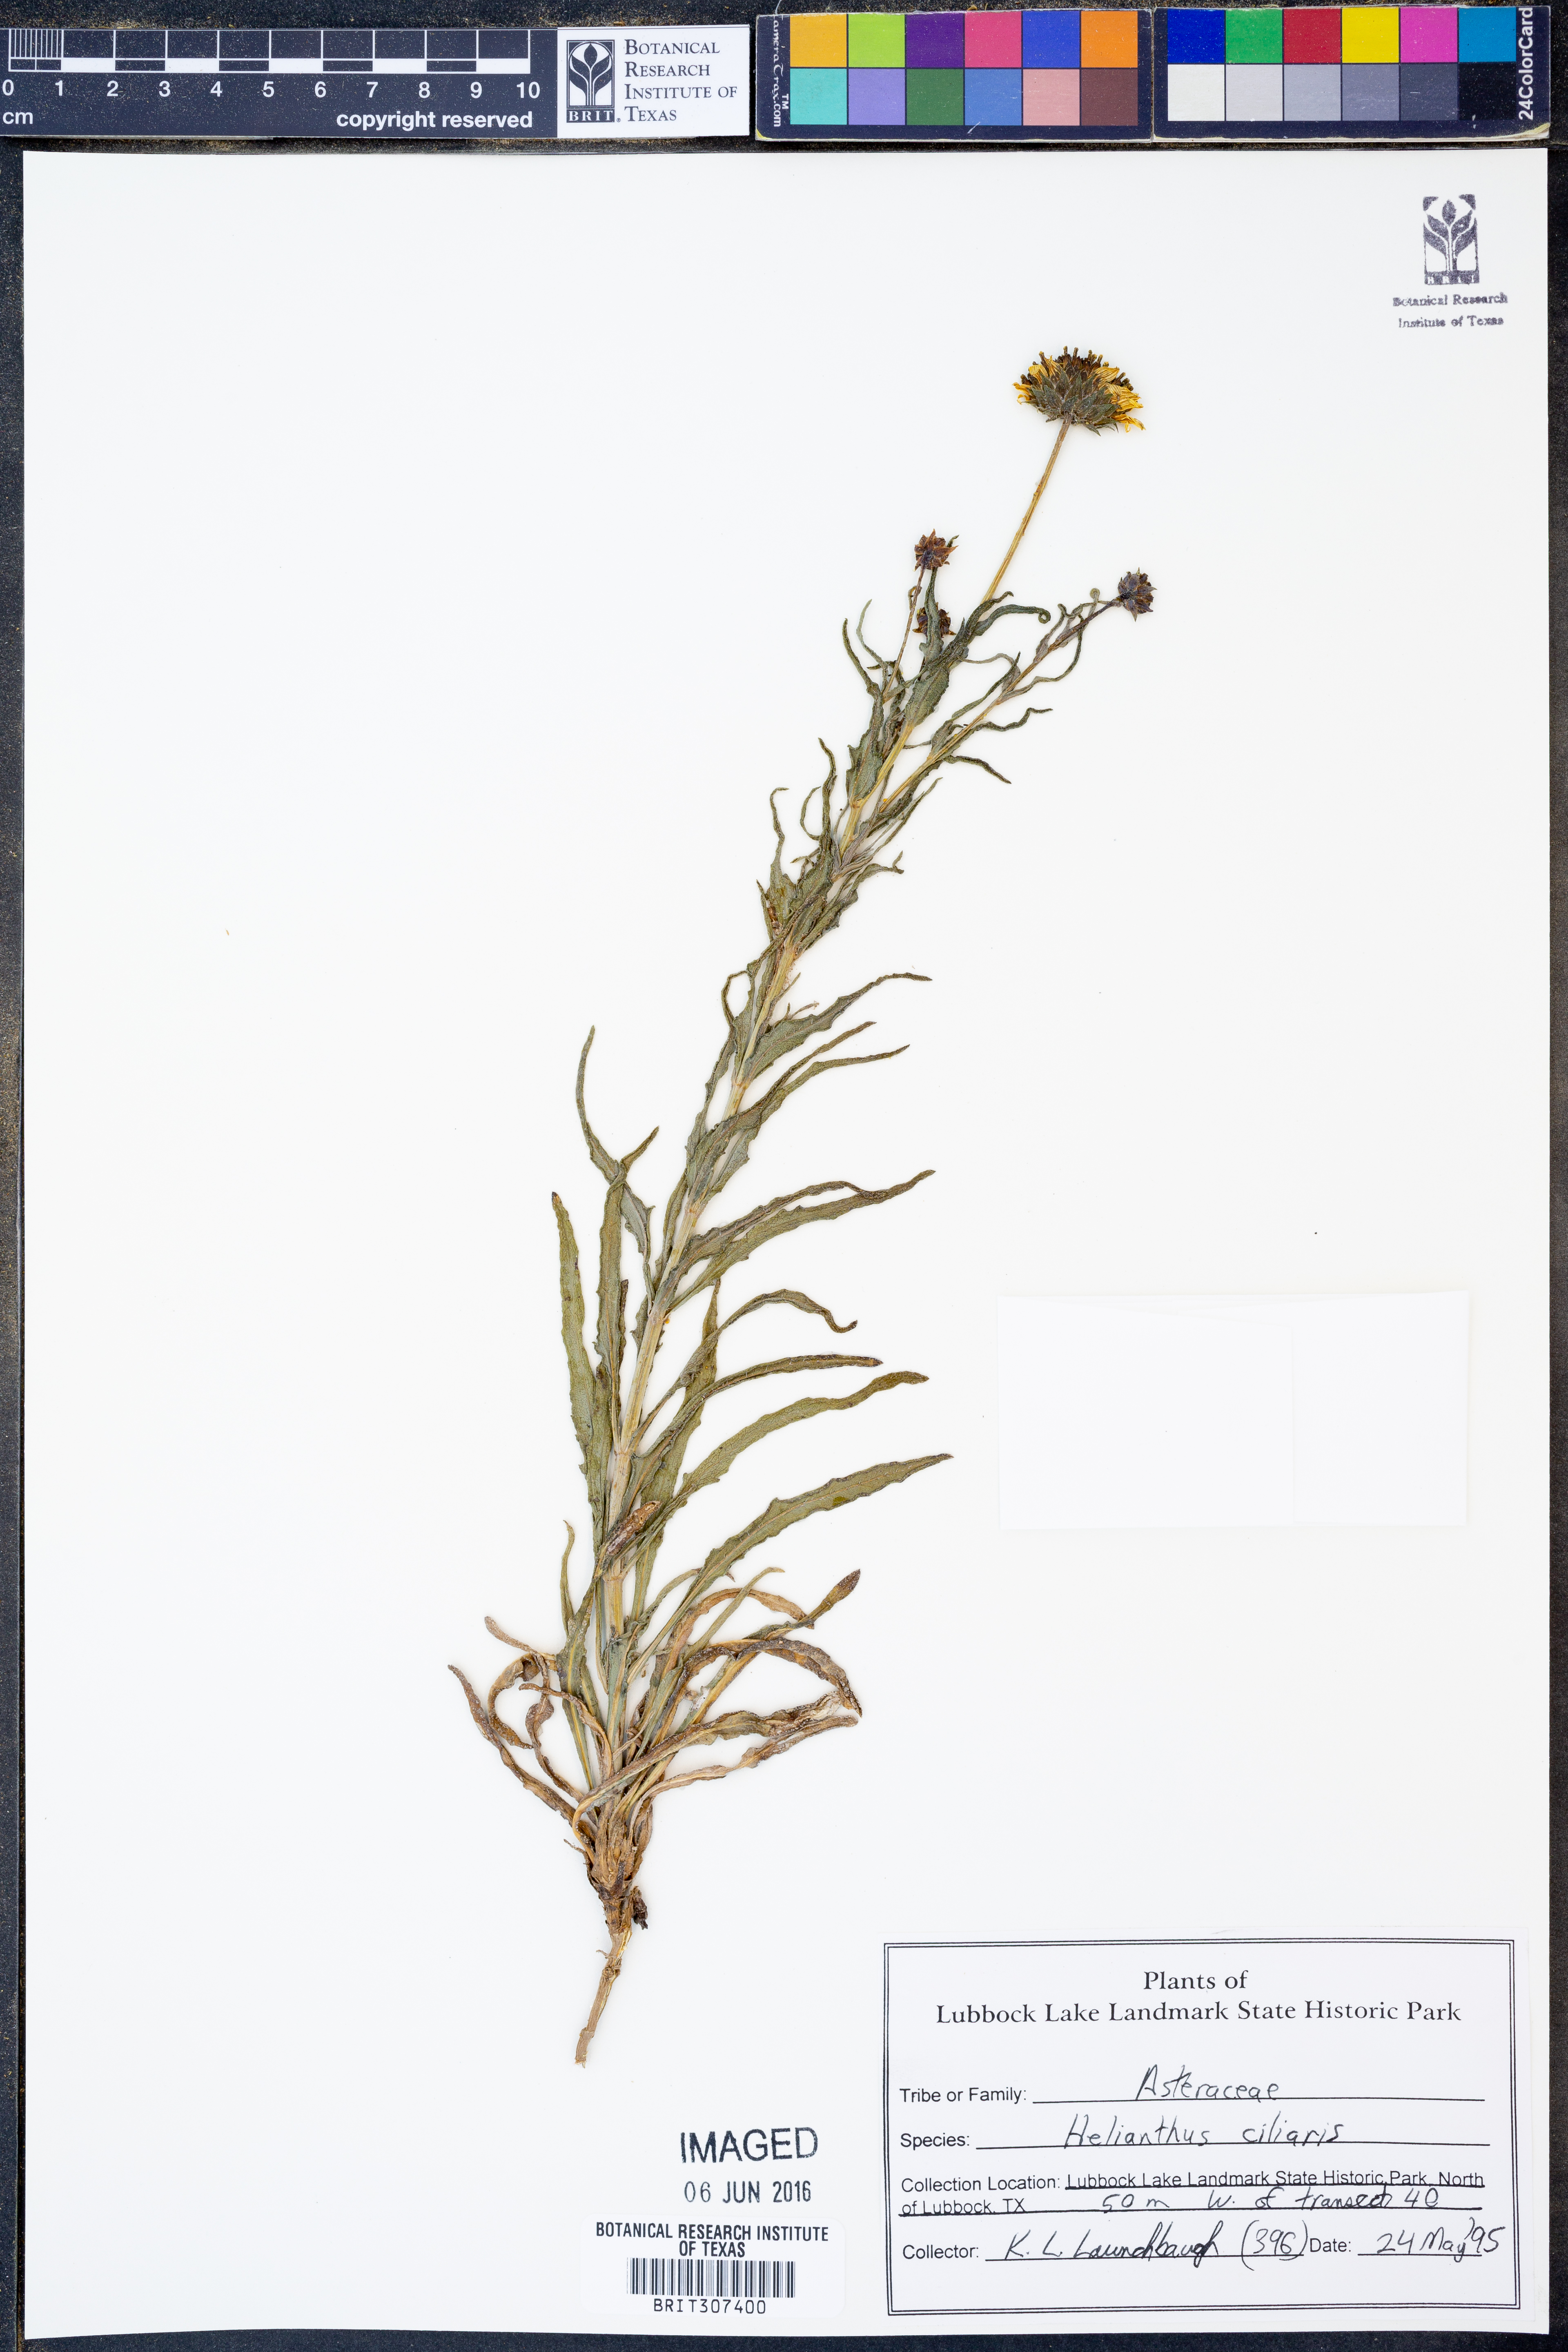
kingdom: Plantae
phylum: Tracheophyta
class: Magnoliopsida
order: Asterales
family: Asteraceae
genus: Helianthus
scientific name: Helianthus ciliaris
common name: Texas blueweed
